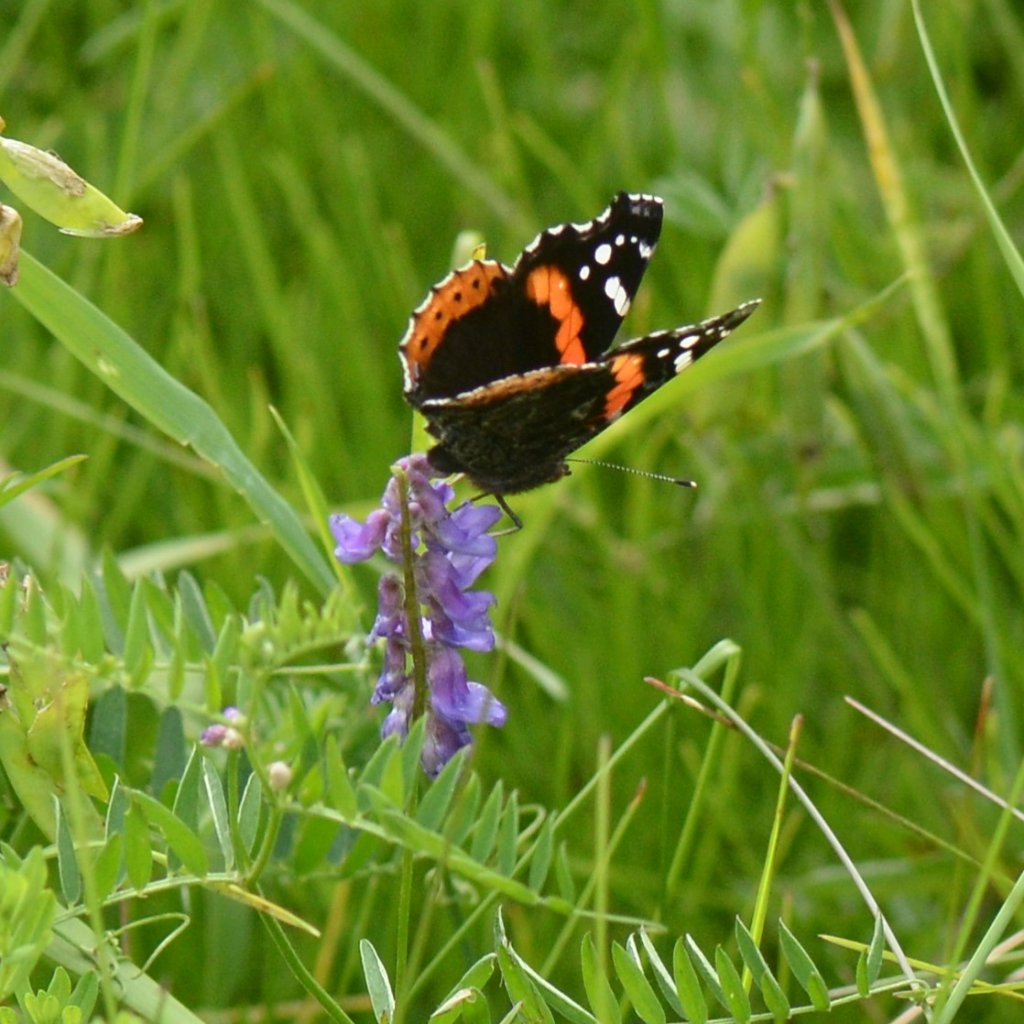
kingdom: Animalia
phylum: Arthropoda
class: Insecta
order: Lepidoptera
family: Nymphalidae
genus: Vanessa
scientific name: Vanessa atalanta
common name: Red Admiral
